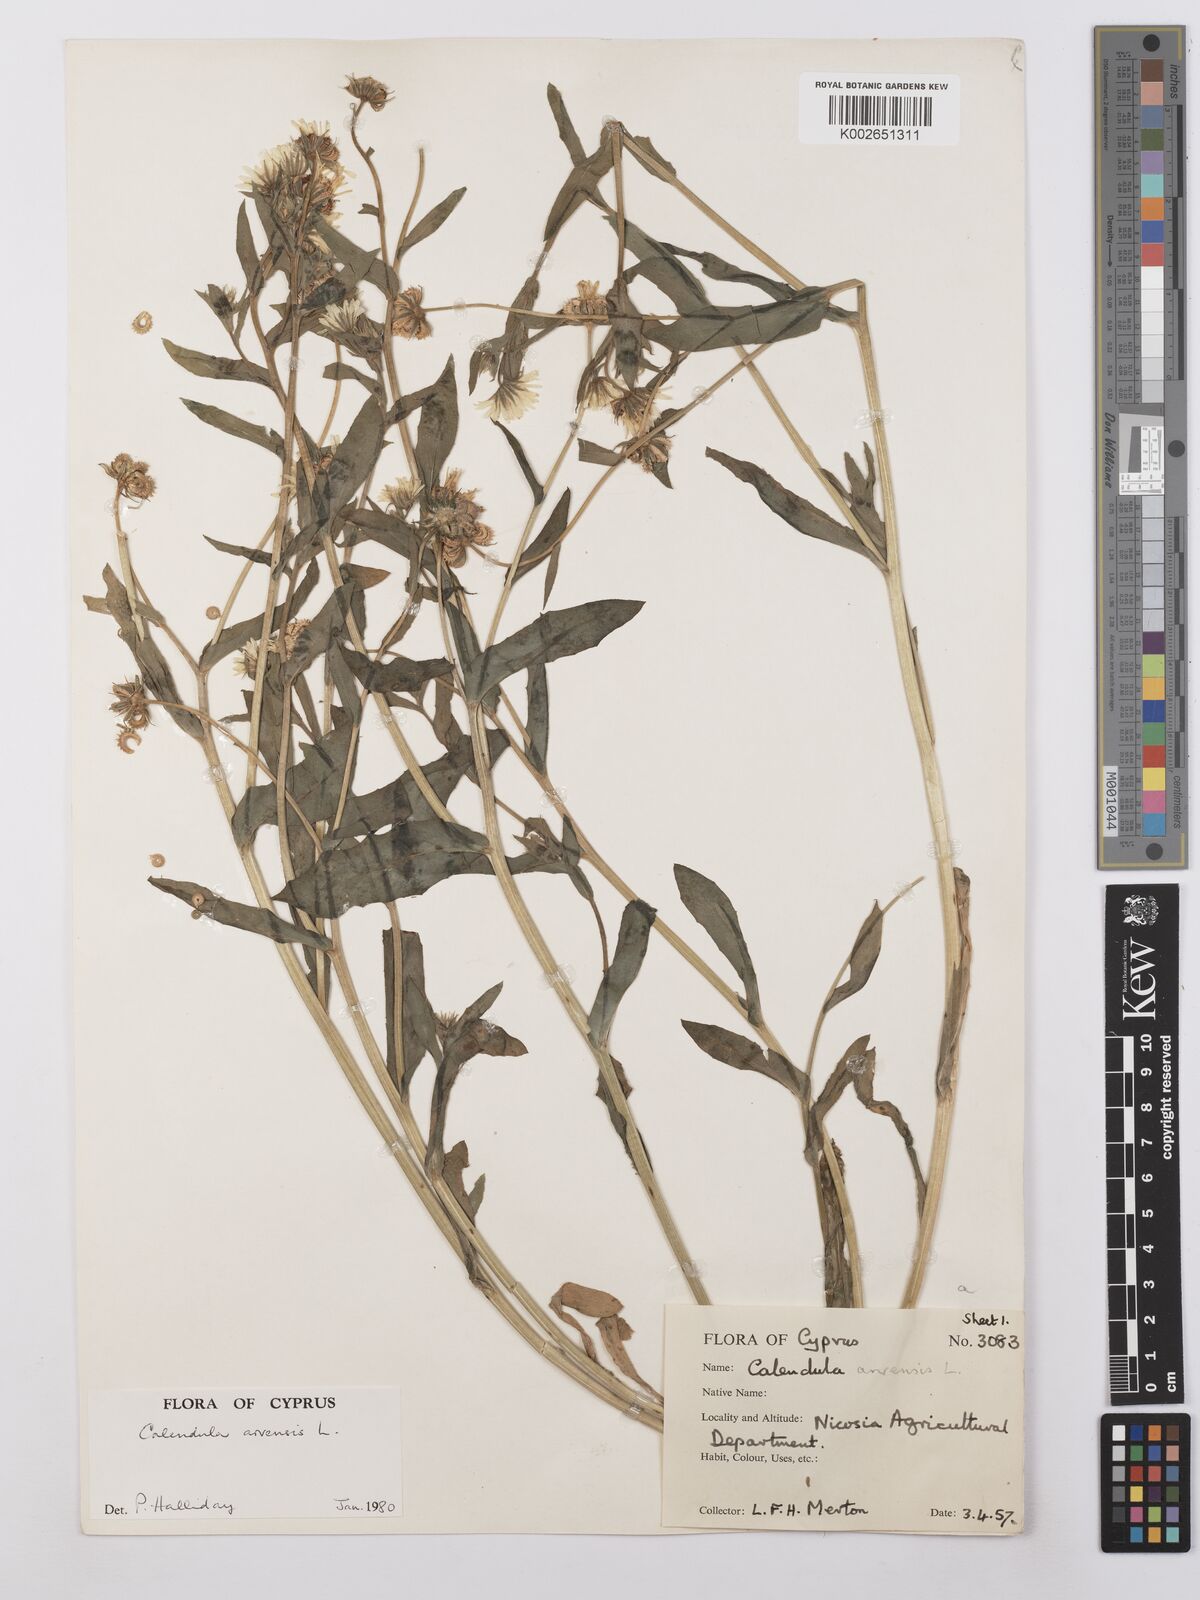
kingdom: Plantae
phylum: Tracheophyta
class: Magnoliopsida
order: Asterales
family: Asteraceae
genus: Calendula
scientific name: Calendula arvensis
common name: Field marigold
